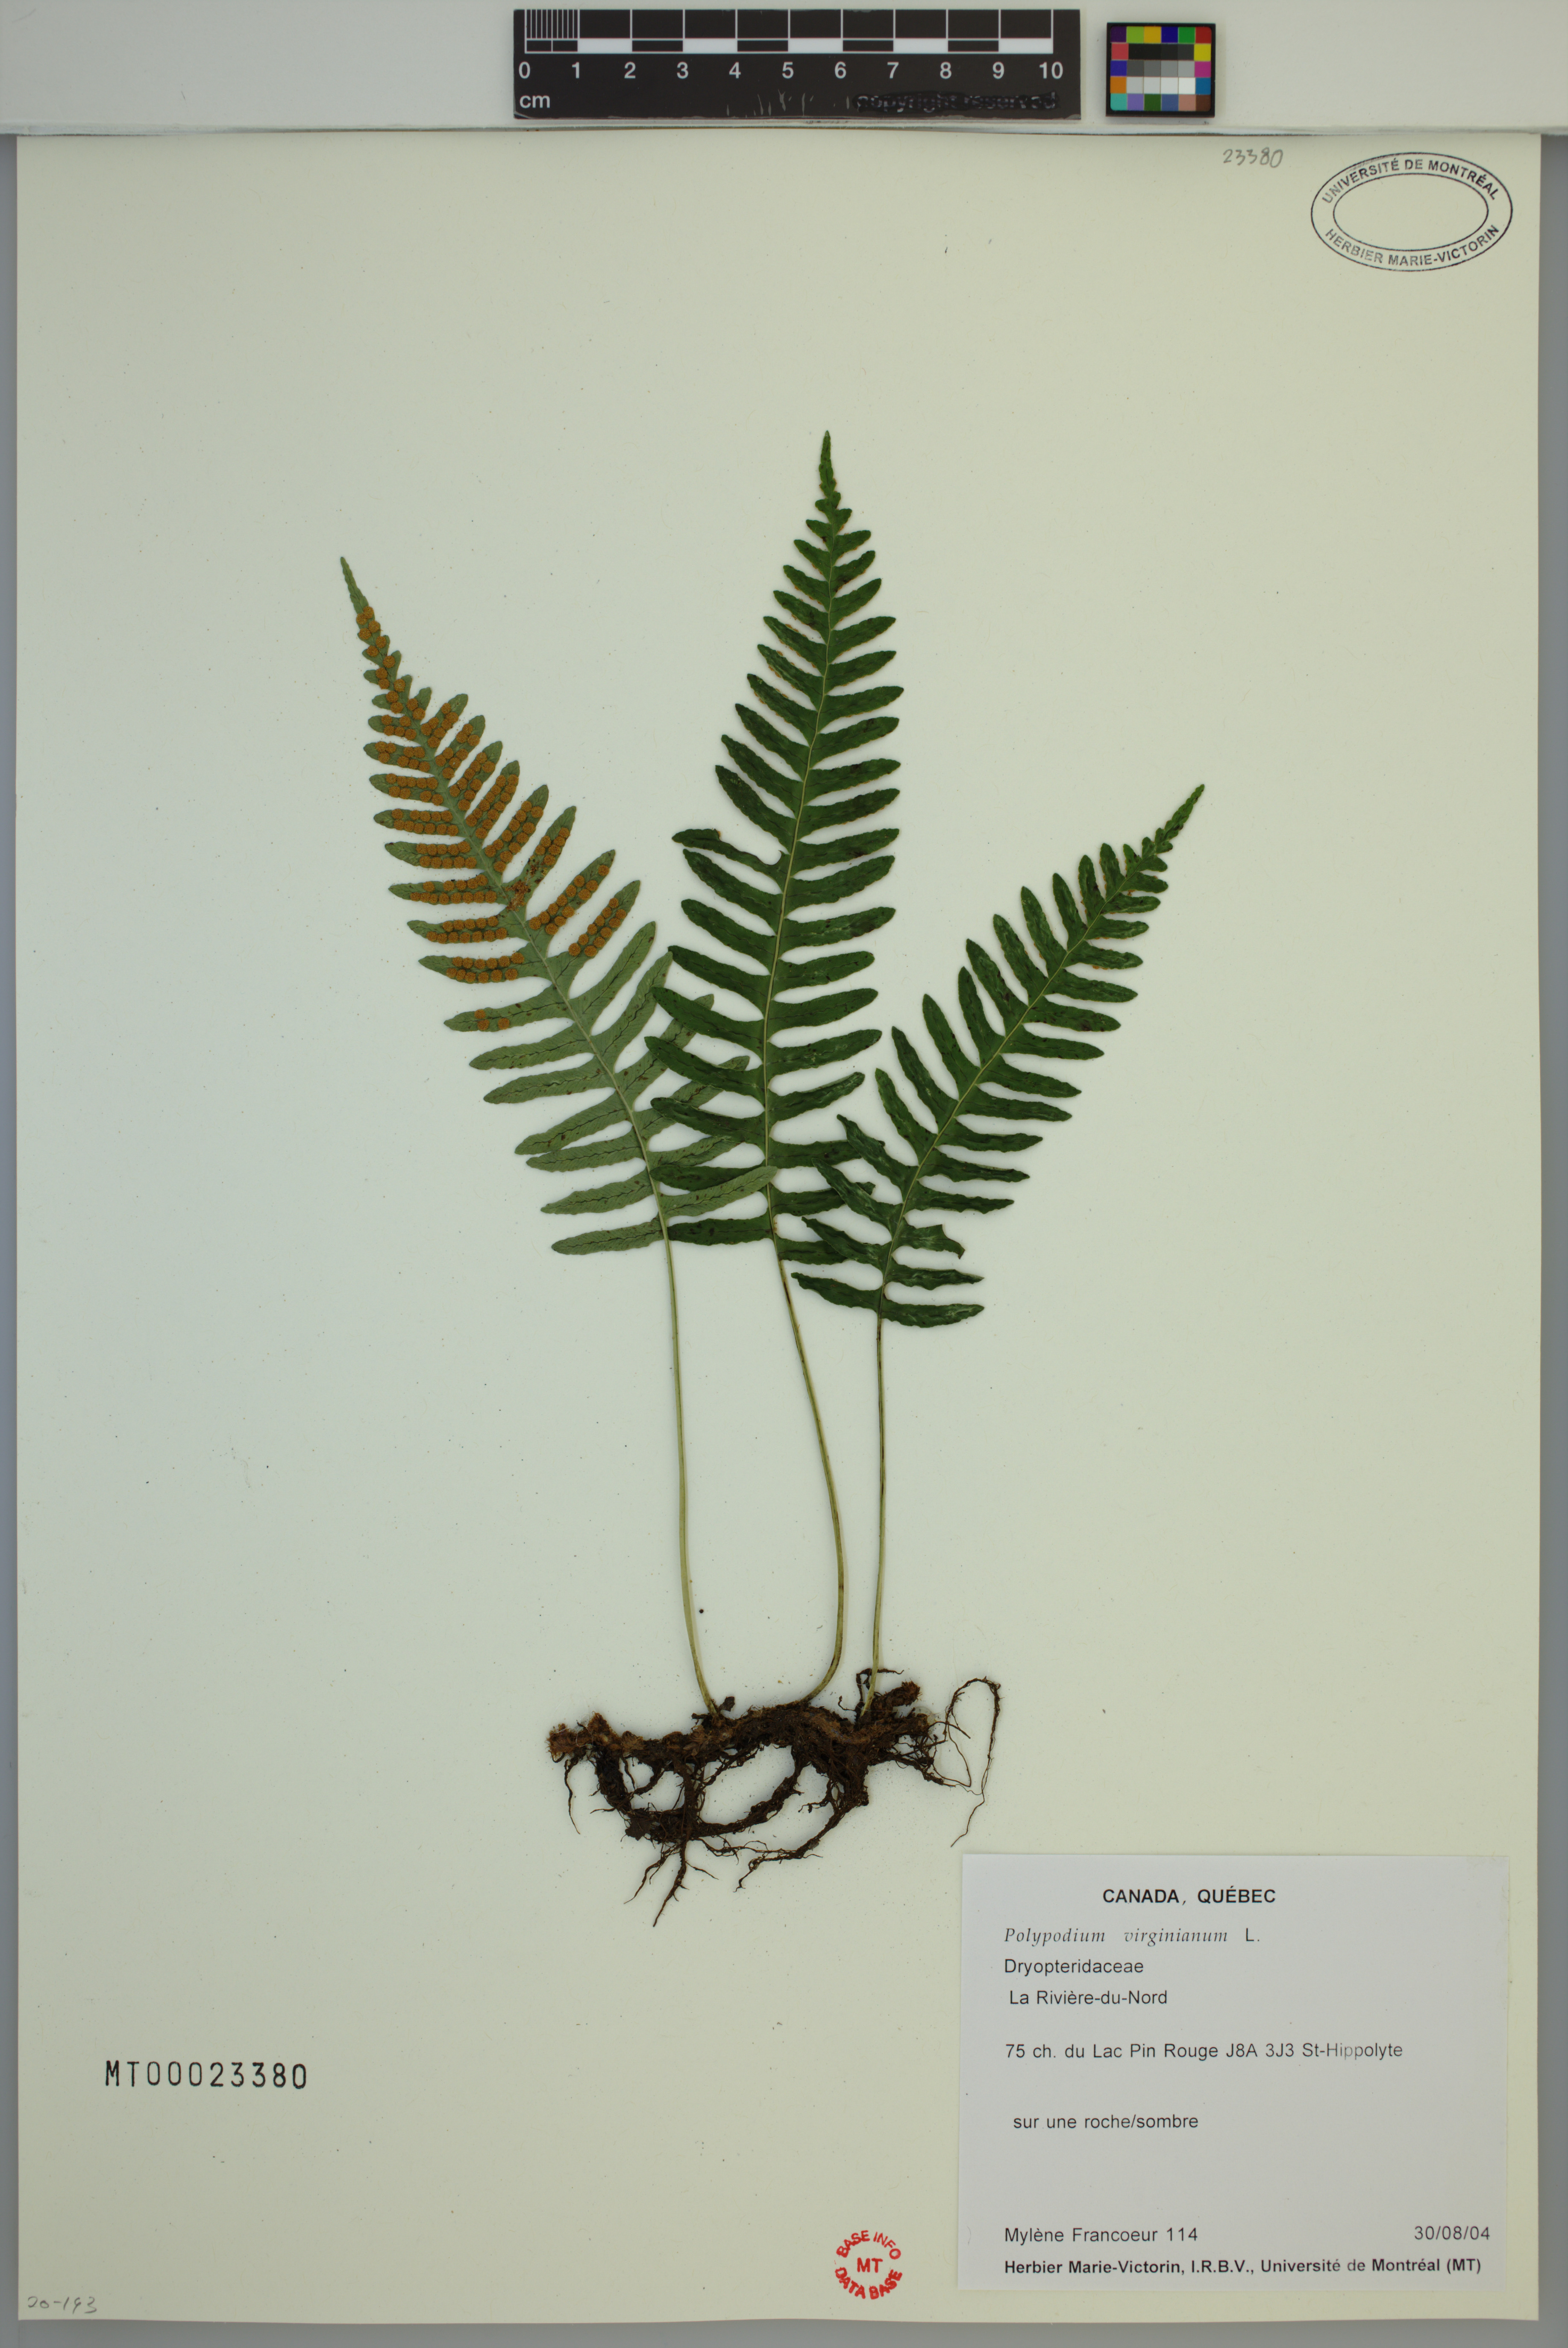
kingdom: Plantae
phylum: Tracheophyta
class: Polypodiopsida
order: Polypodiales
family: Polypodiaceae
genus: Polypodium
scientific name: Polypodium virginianum
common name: American wall fern
